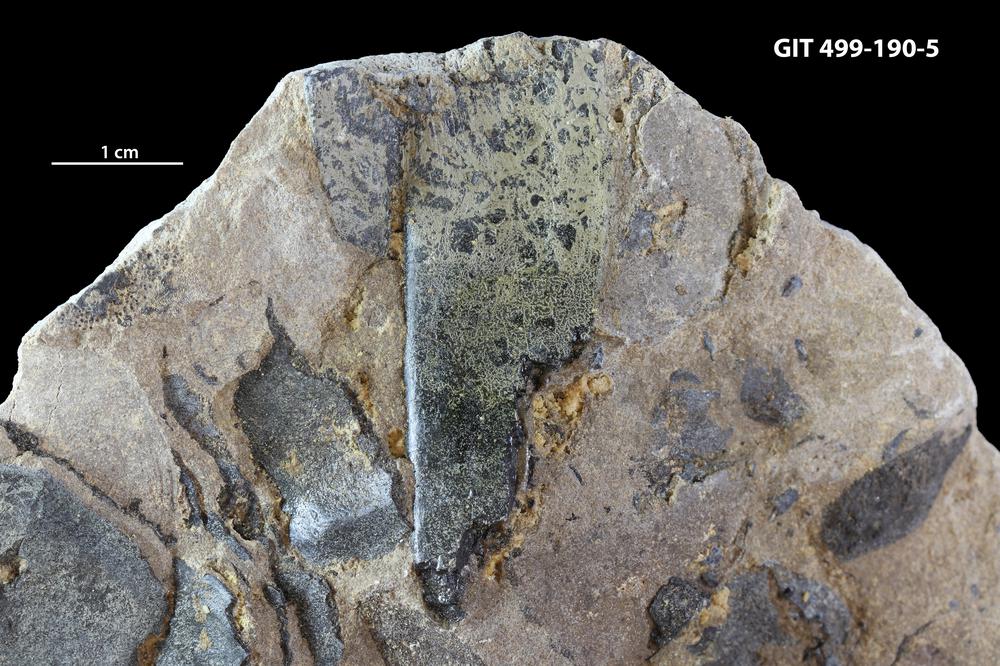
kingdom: Animalia
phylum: Chordata
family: Holoptychiidae
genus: Glyptolepis
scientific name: Glyptolepis
